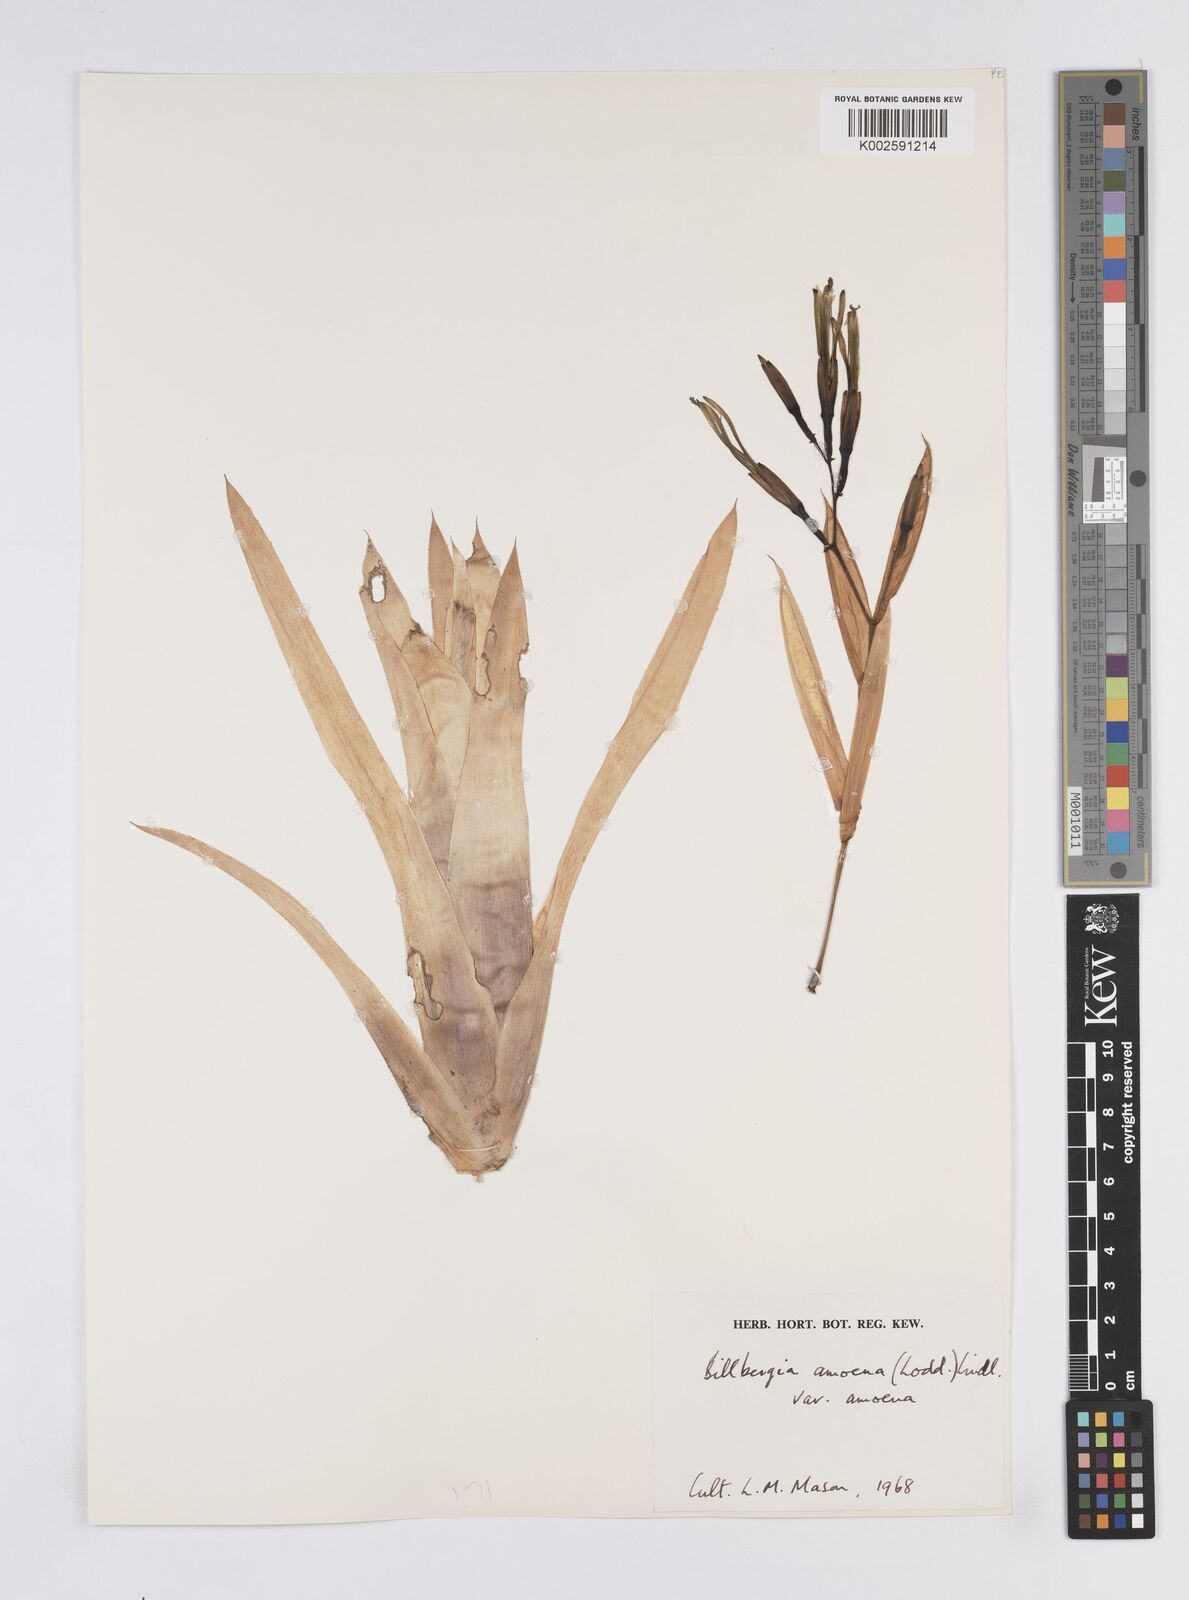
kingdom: Plantae
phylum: Tracheophyta
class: Liliopsida
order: Poales
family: Bromeliaceae
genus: Billbergia
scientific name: Billbergia amoena
